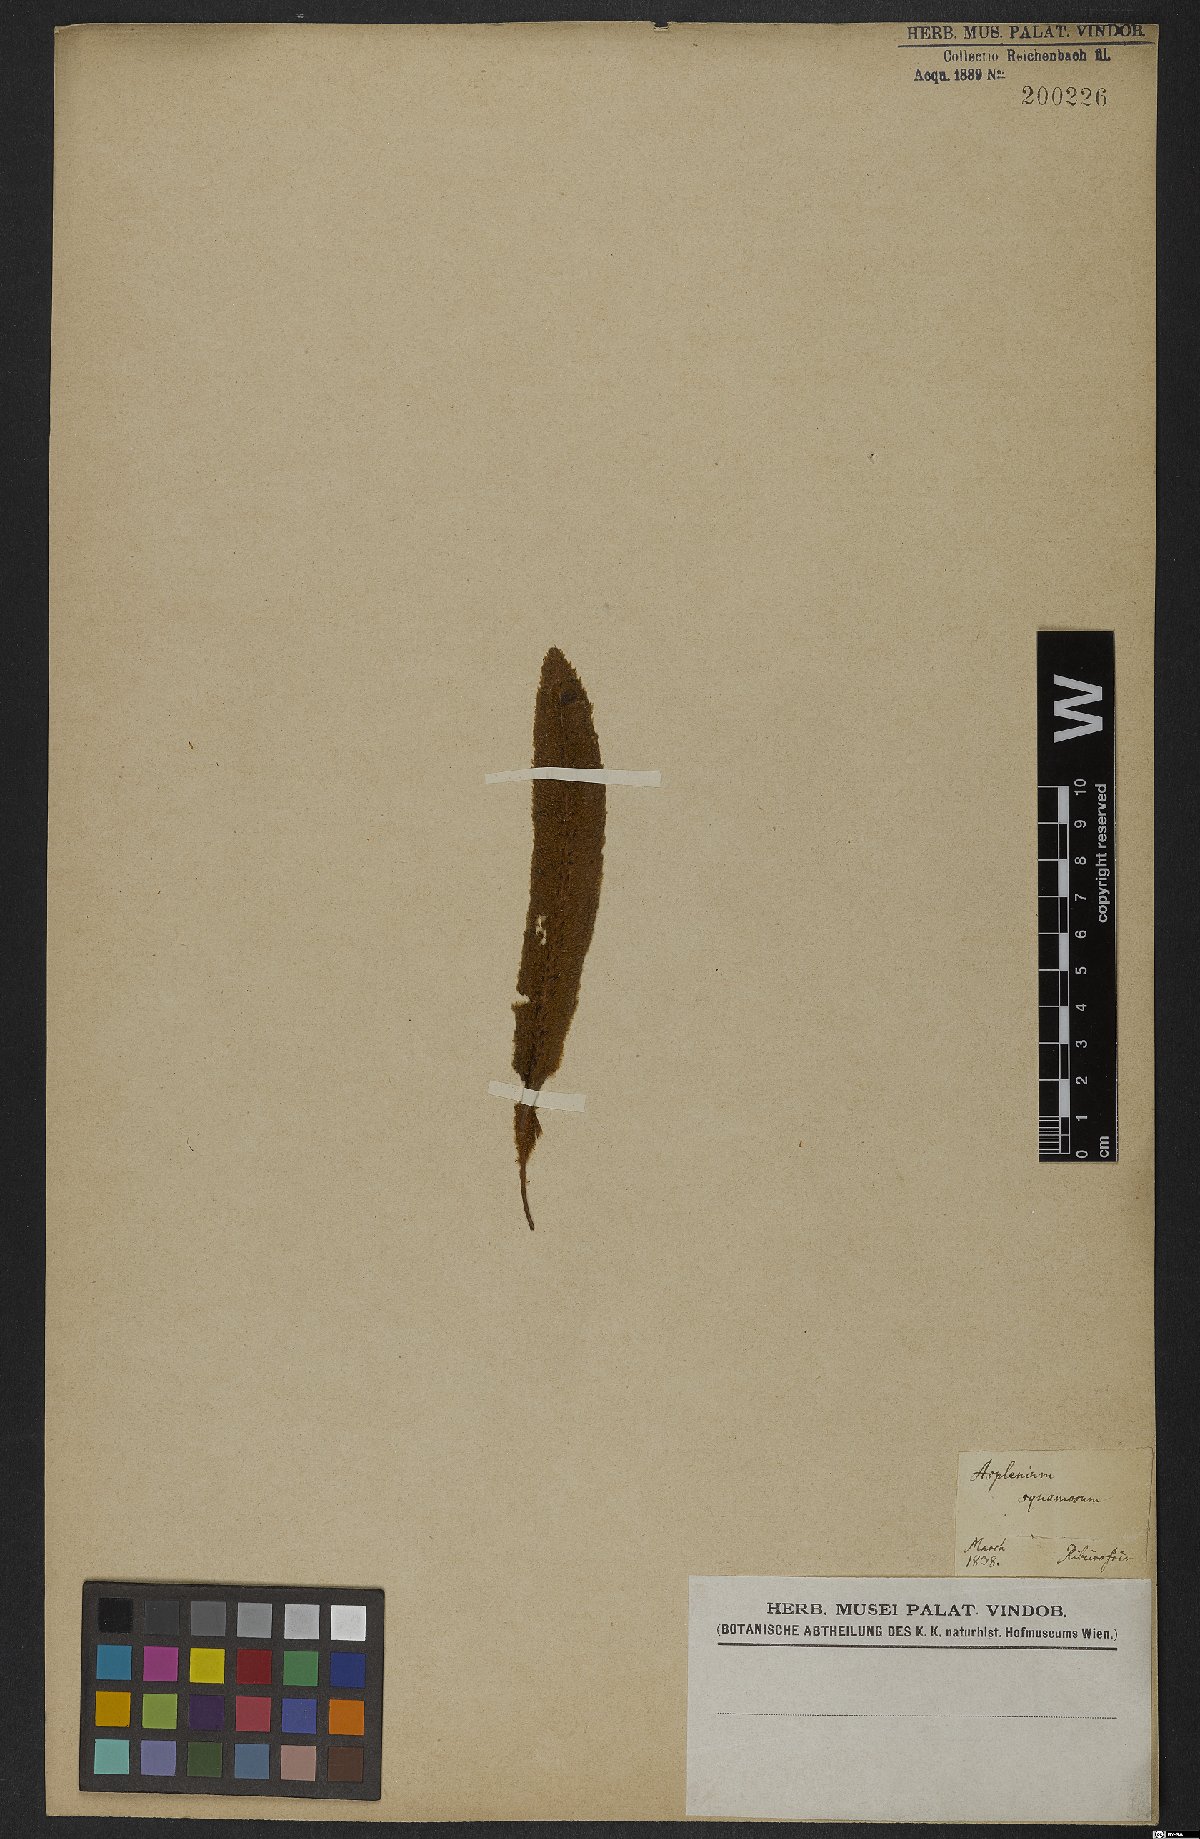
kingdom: Plantae
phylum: Tracheophyta
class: Polypodiopsida
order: Polypodiales
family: Dryopteridaceae
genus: Elaphoglossum
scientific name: Elaphoglossum hirtum
